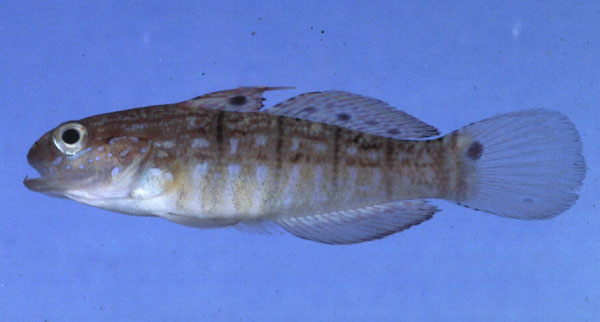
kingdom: Animalia
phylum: Chordata
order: Perciformes
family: Gobiidae
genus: Amblygobius
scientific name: Amblygobius semicinctus
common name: Halfbarred goby
